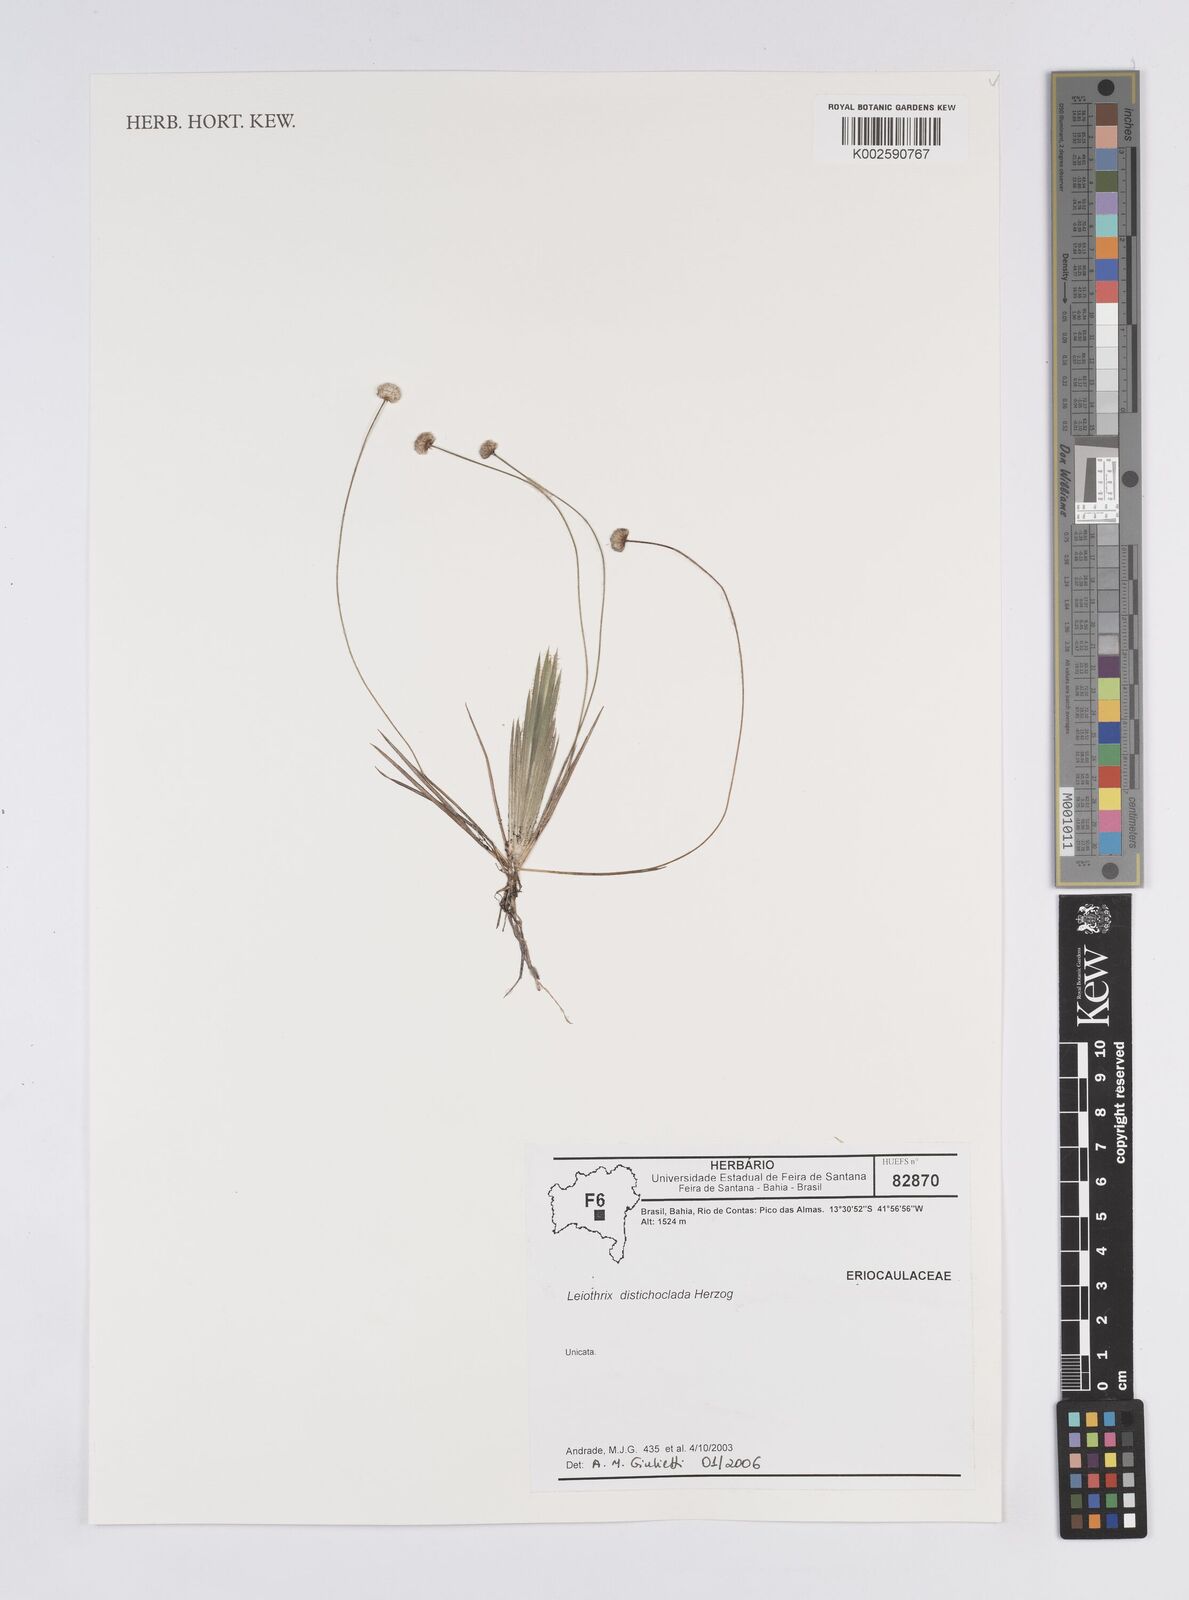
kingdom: Plantae
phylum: Tracheophyta
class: Liliopsida
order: Poales
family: Eriocaulaceae
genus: Leiothrix
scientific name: Leiothrix distichoclada
